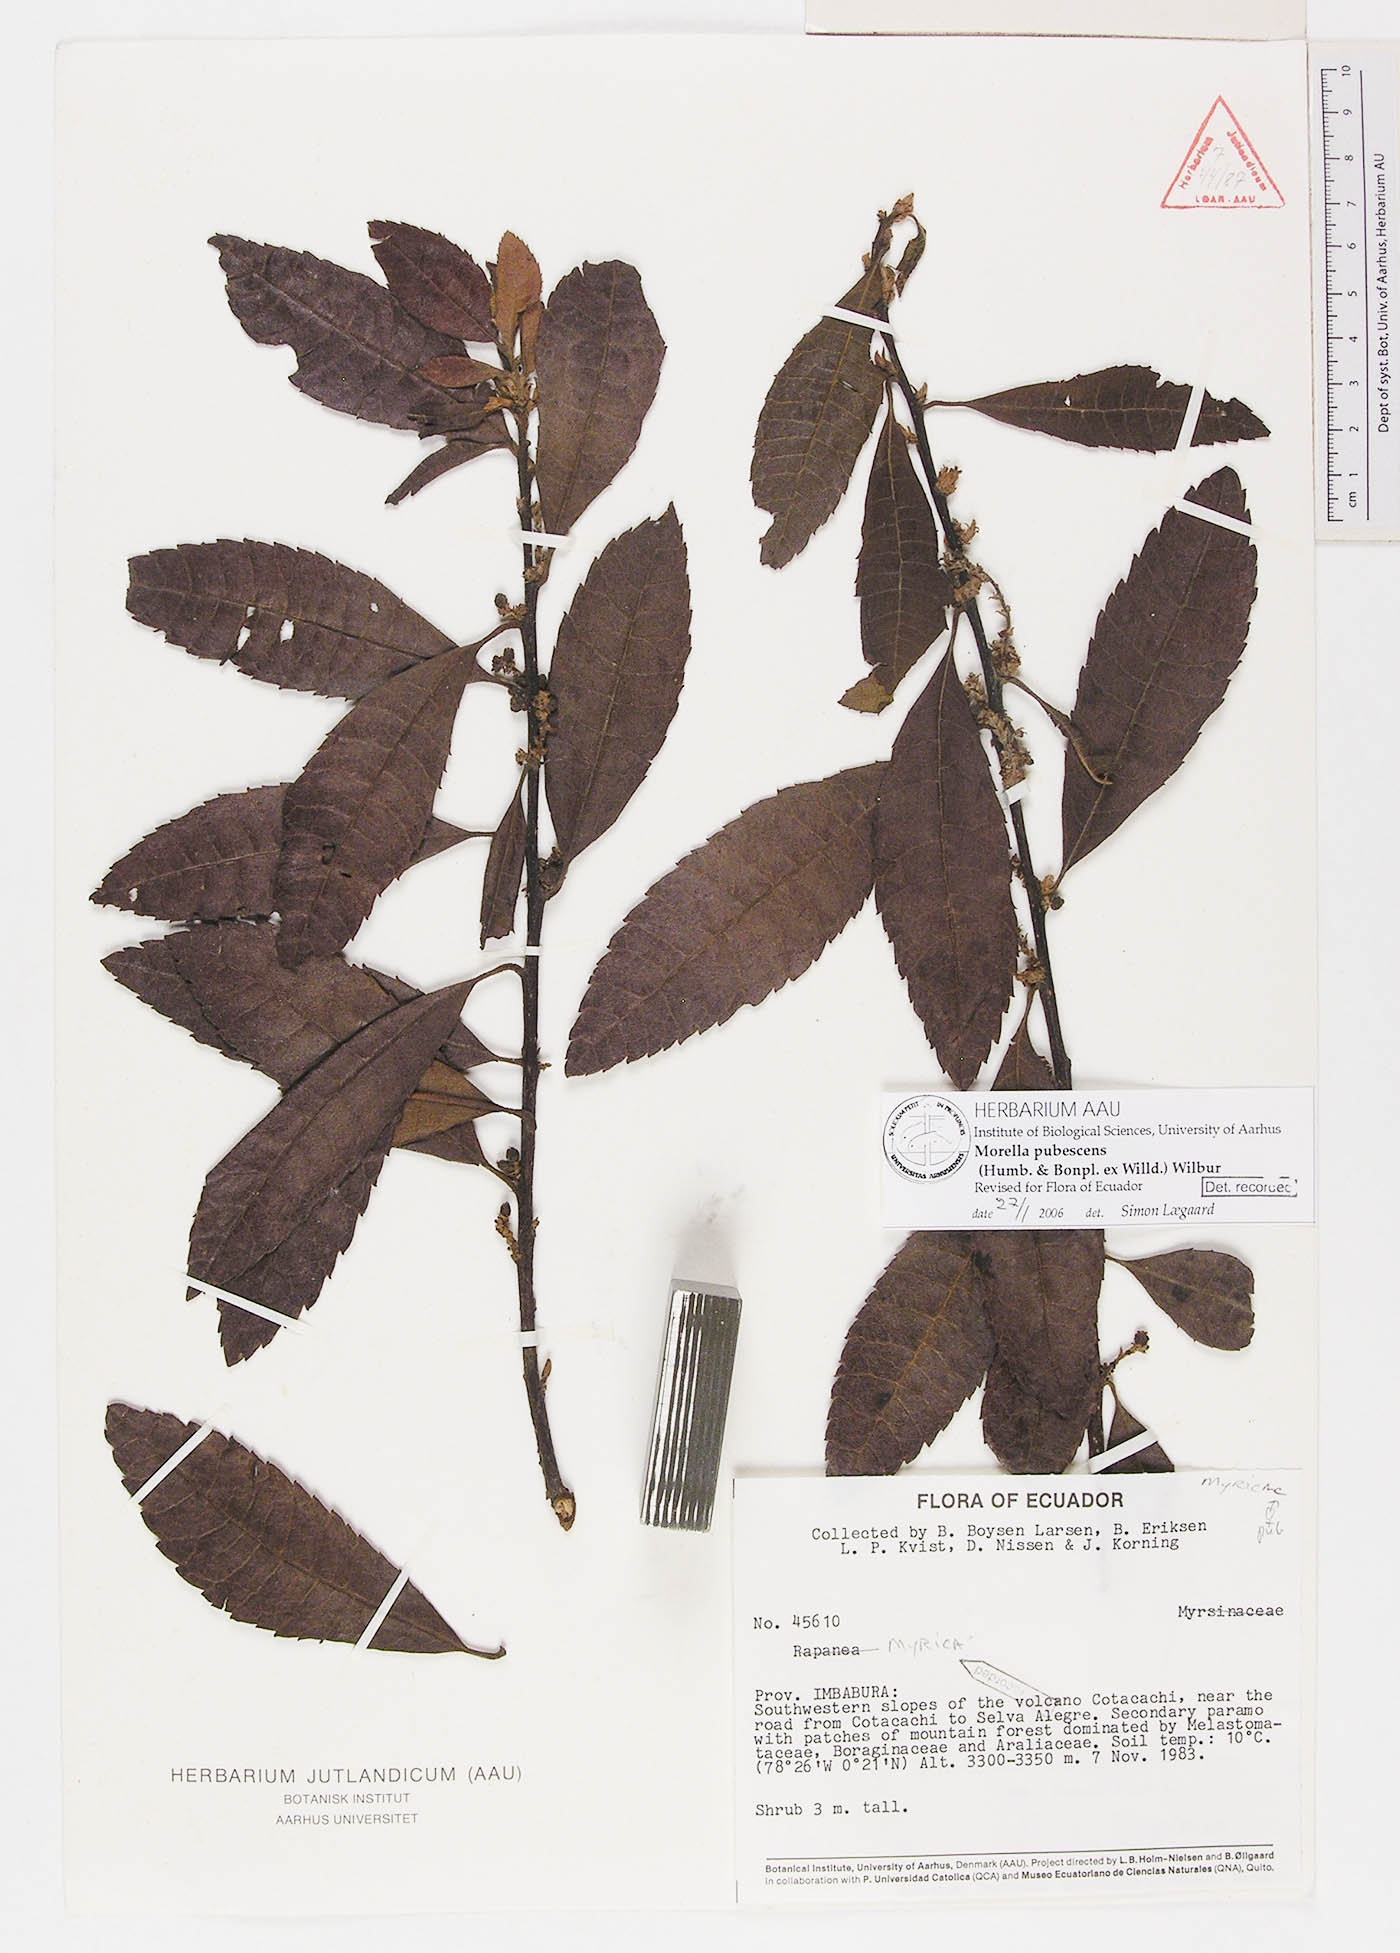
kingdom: Plantae
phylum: Tracheophyta
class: Magnoliopsida
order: Fagales
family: Myricaceae
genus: Morella
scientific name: Morella pubescens
